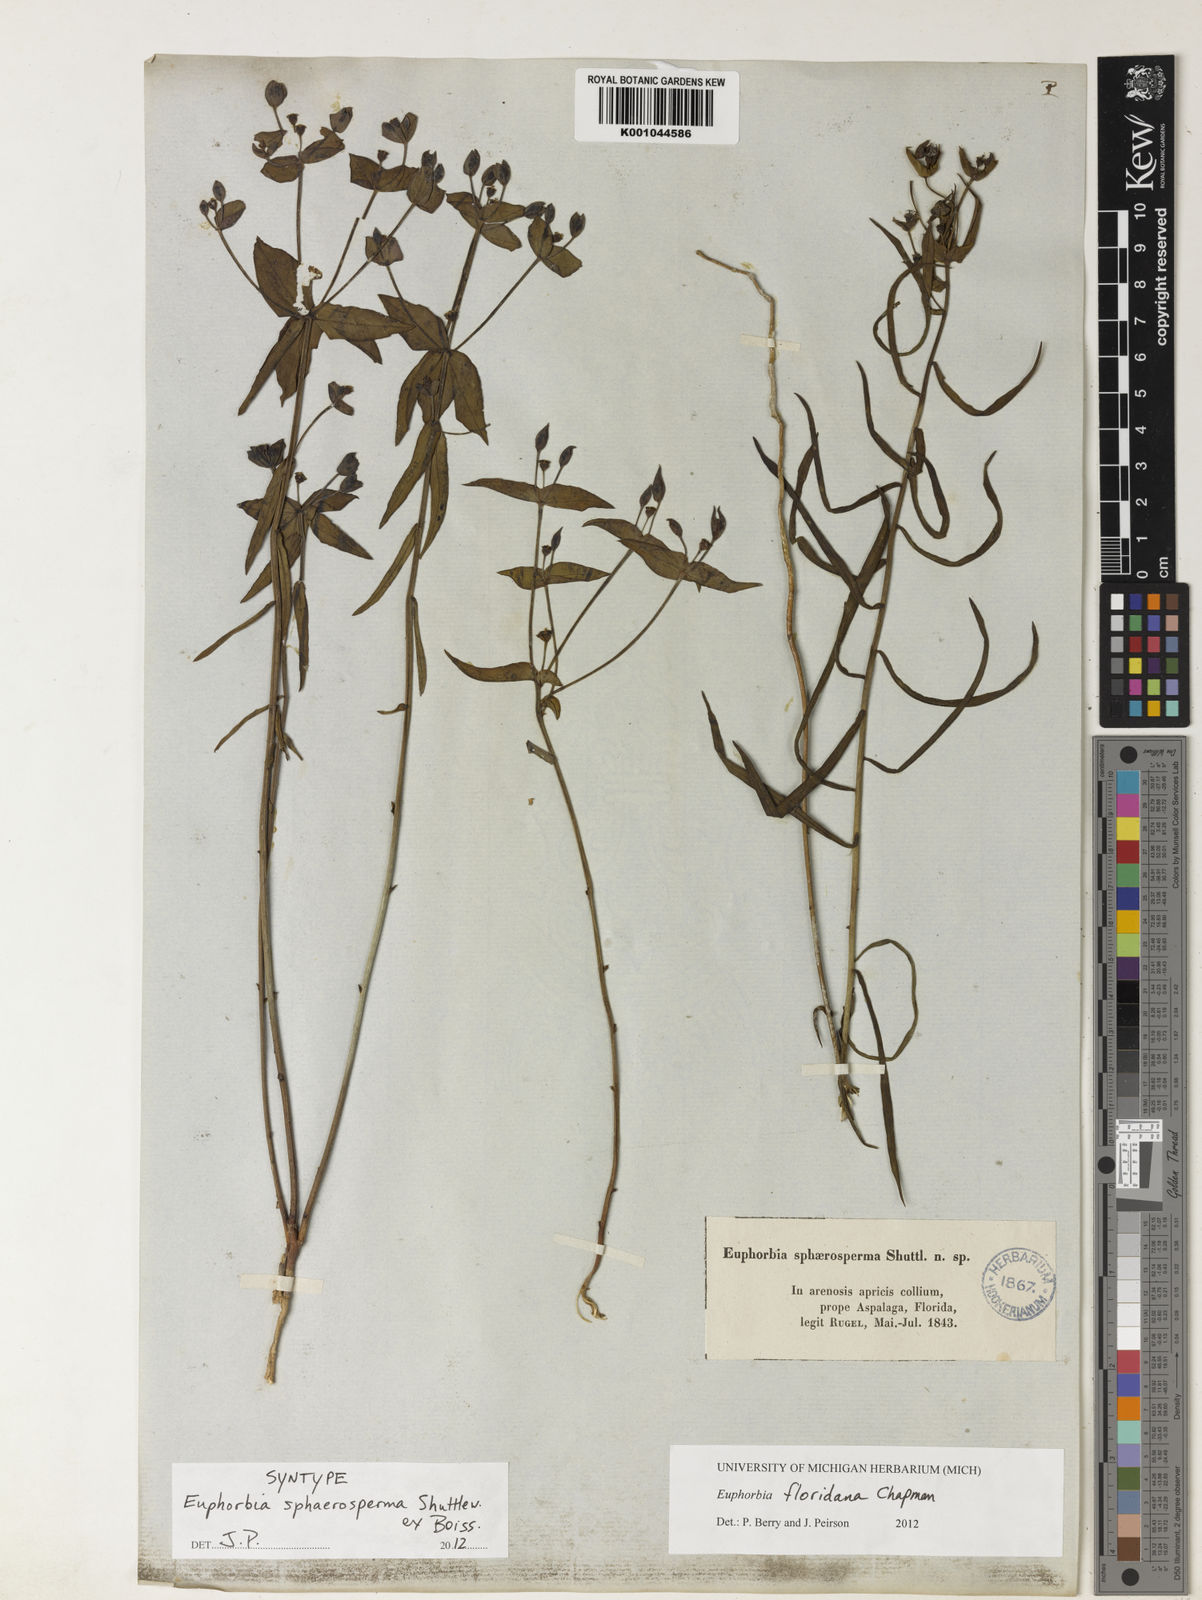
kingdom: Plantae
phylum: Tracheophyta
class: Magnoliopsida
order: Malpighiales
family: Euphorbiaceae
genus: Euphorbia
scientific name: Euphorbia floridana
